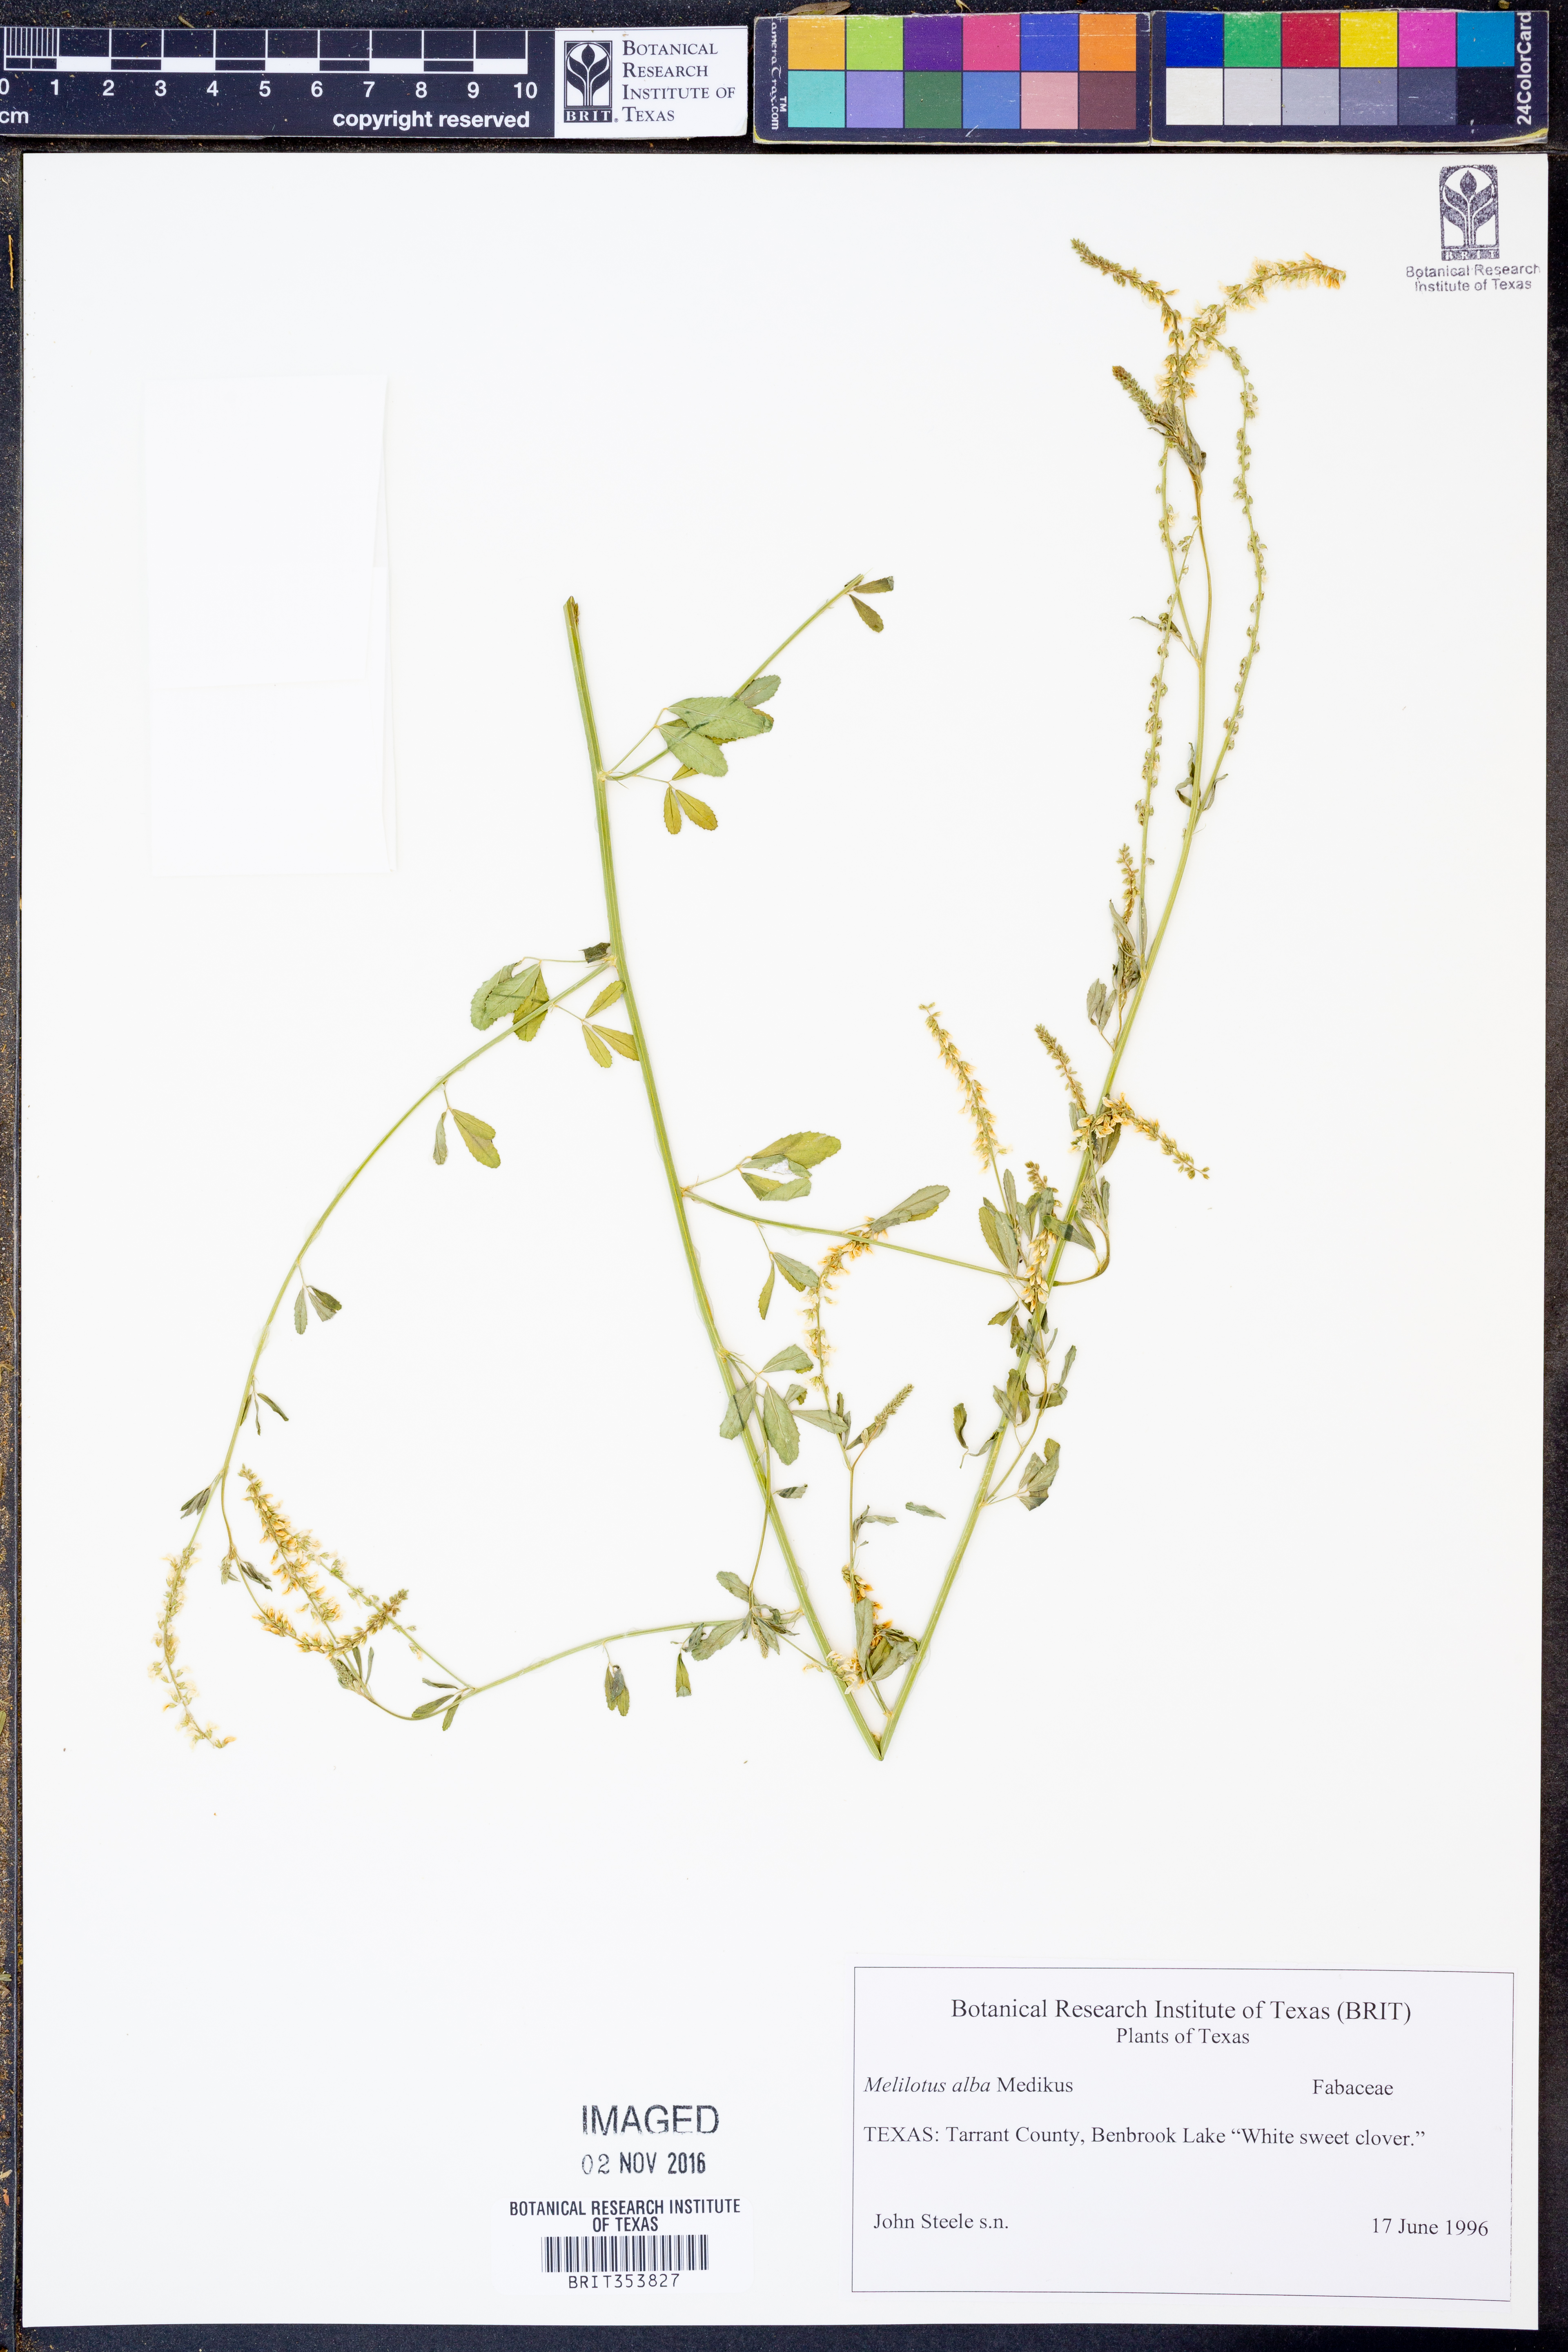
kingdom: Plantae
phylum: Tracheophyta
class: Magnoliopsida
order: Fabales
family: Fabaceae
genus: Melilotus
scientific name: Melilotus albus
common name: White melilot
